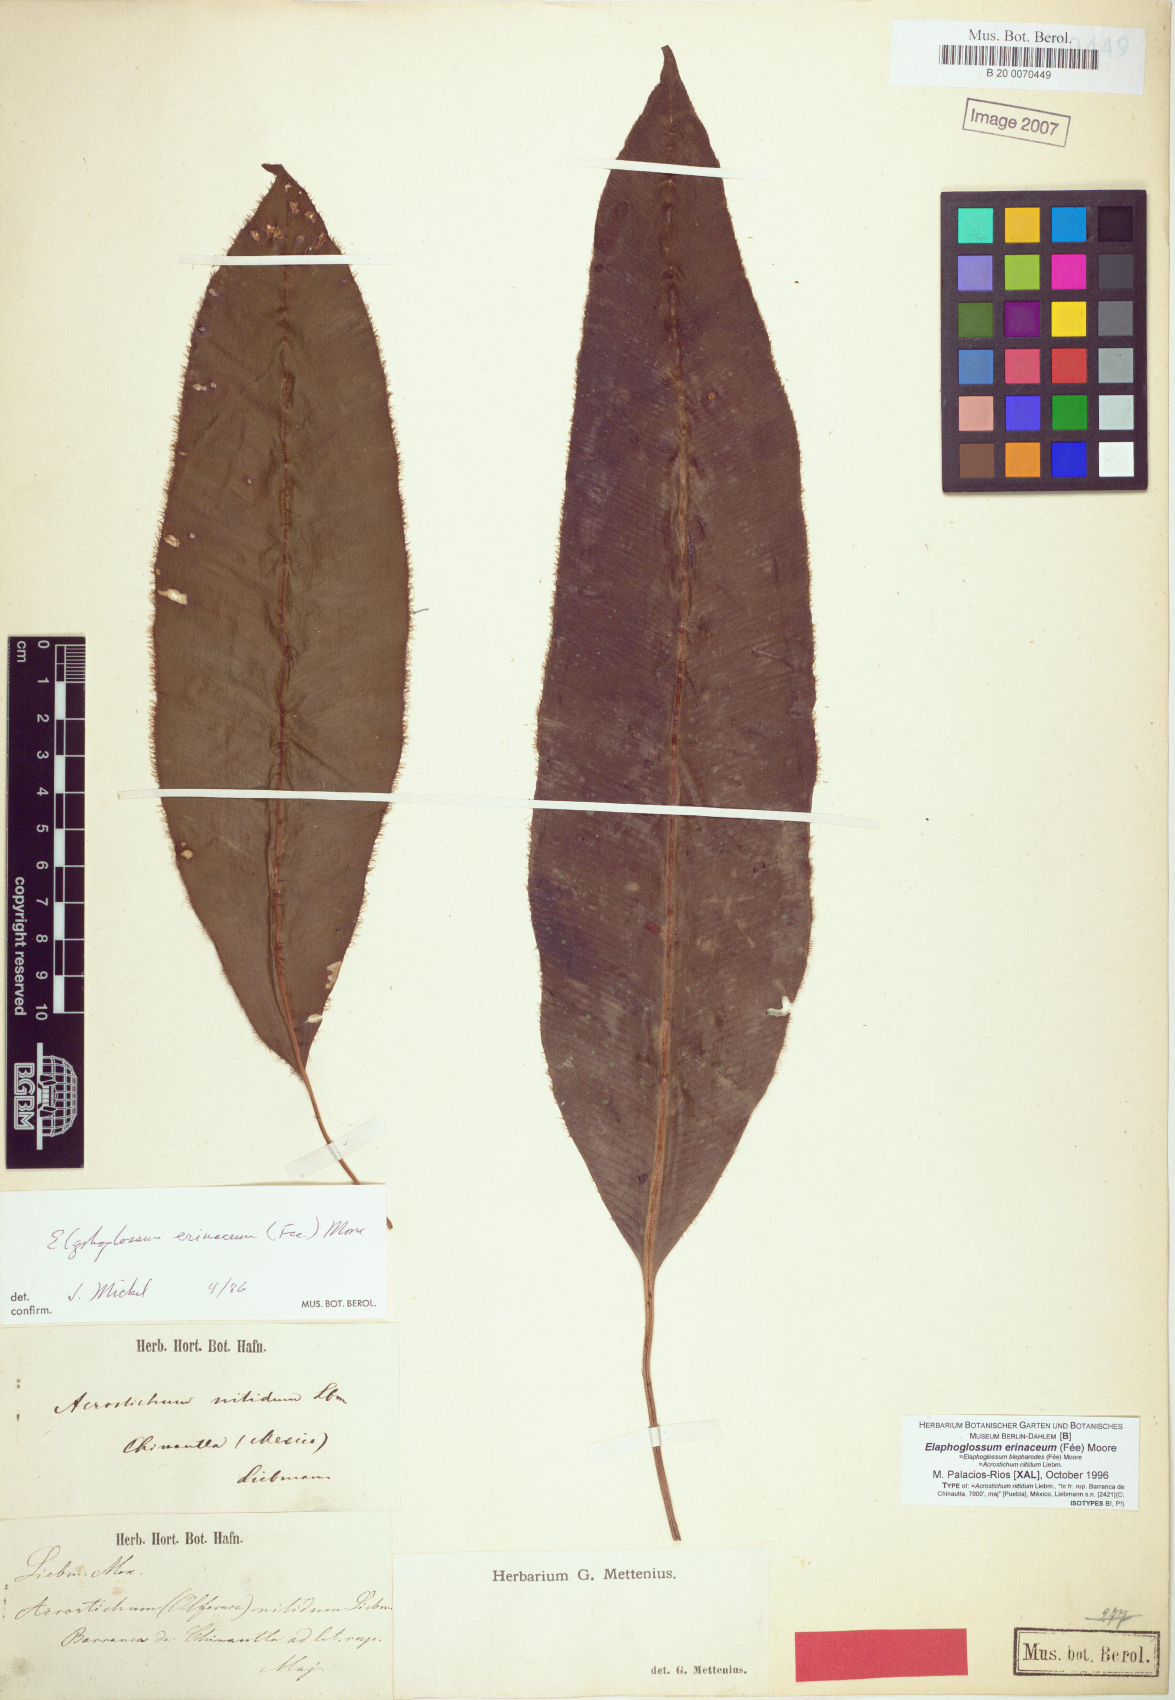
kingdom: Plantae
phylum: Tracheophyta
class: Polypodiopsida
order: Polypodiales
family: Dryopteridaceae
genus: Elaphoglossum
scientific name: Elaphoglossum erinaceum
